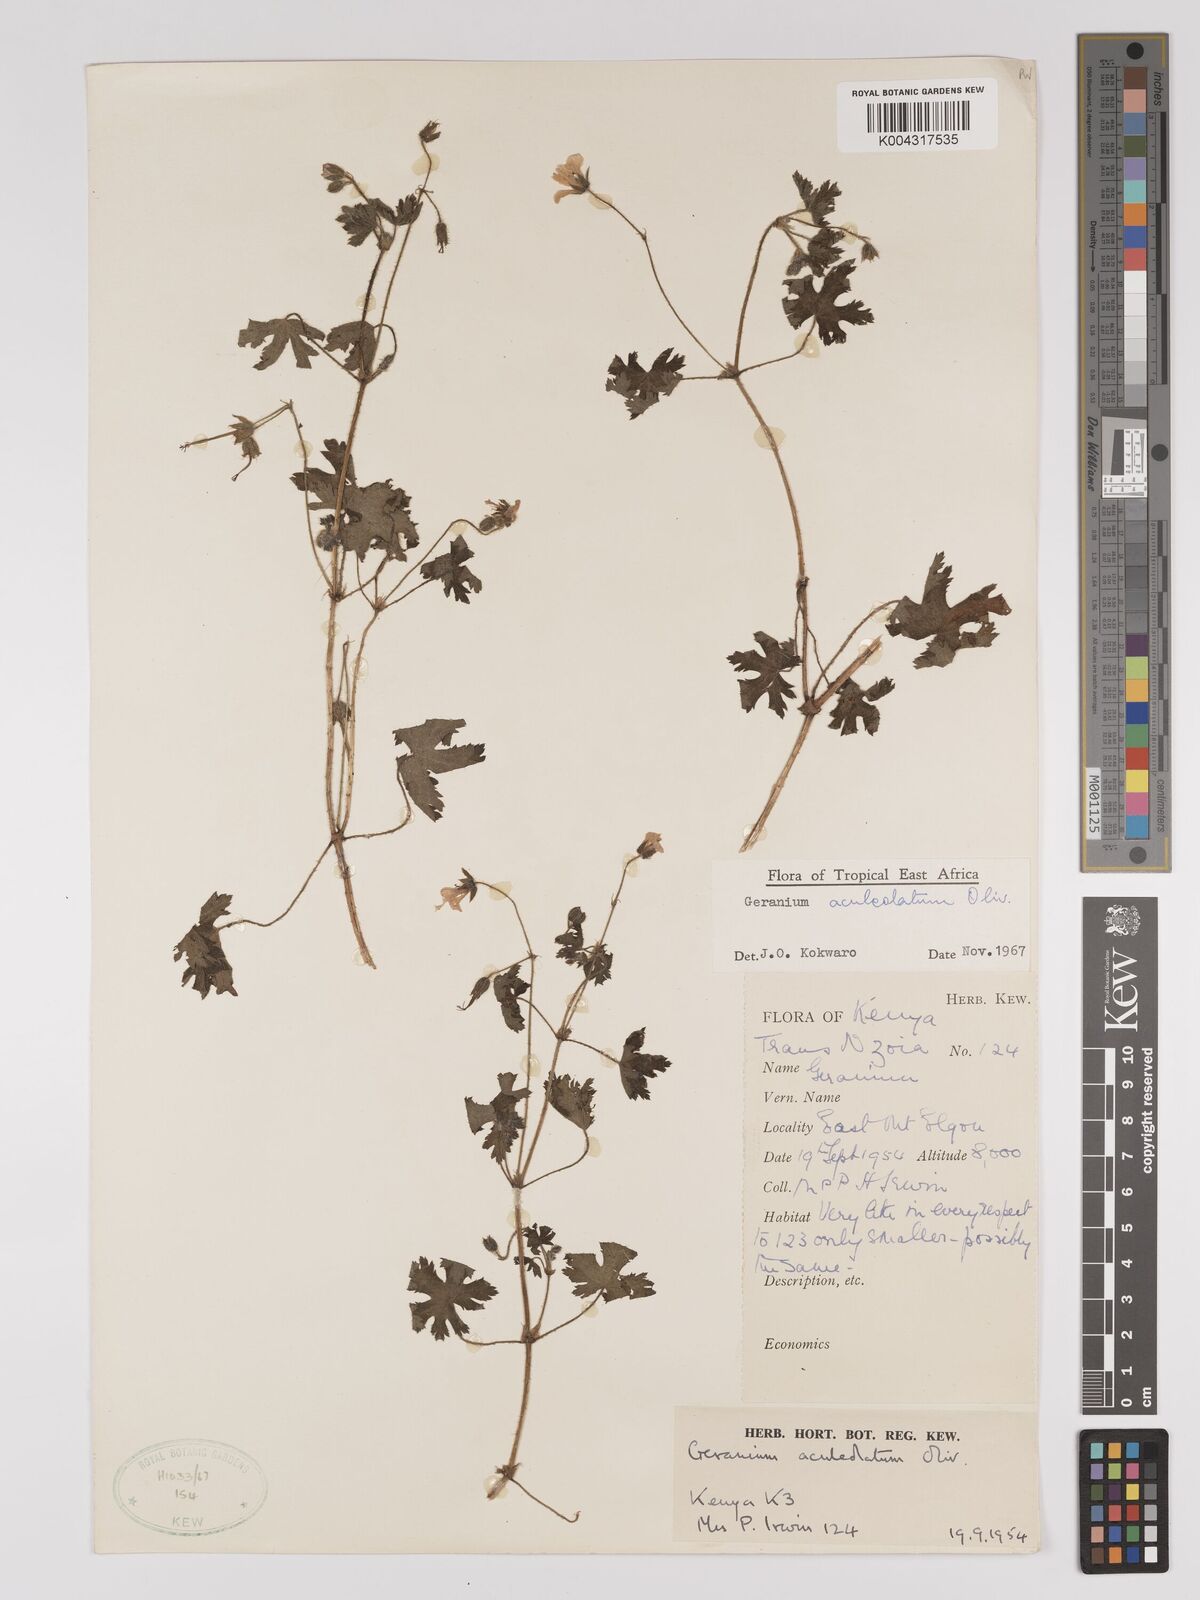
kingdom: Plantae
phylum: Tracheophyta
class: Magnoliopsida
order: Geraniales
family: Geraniaceae
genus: Geranium
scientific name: Geranium aculeolatum
